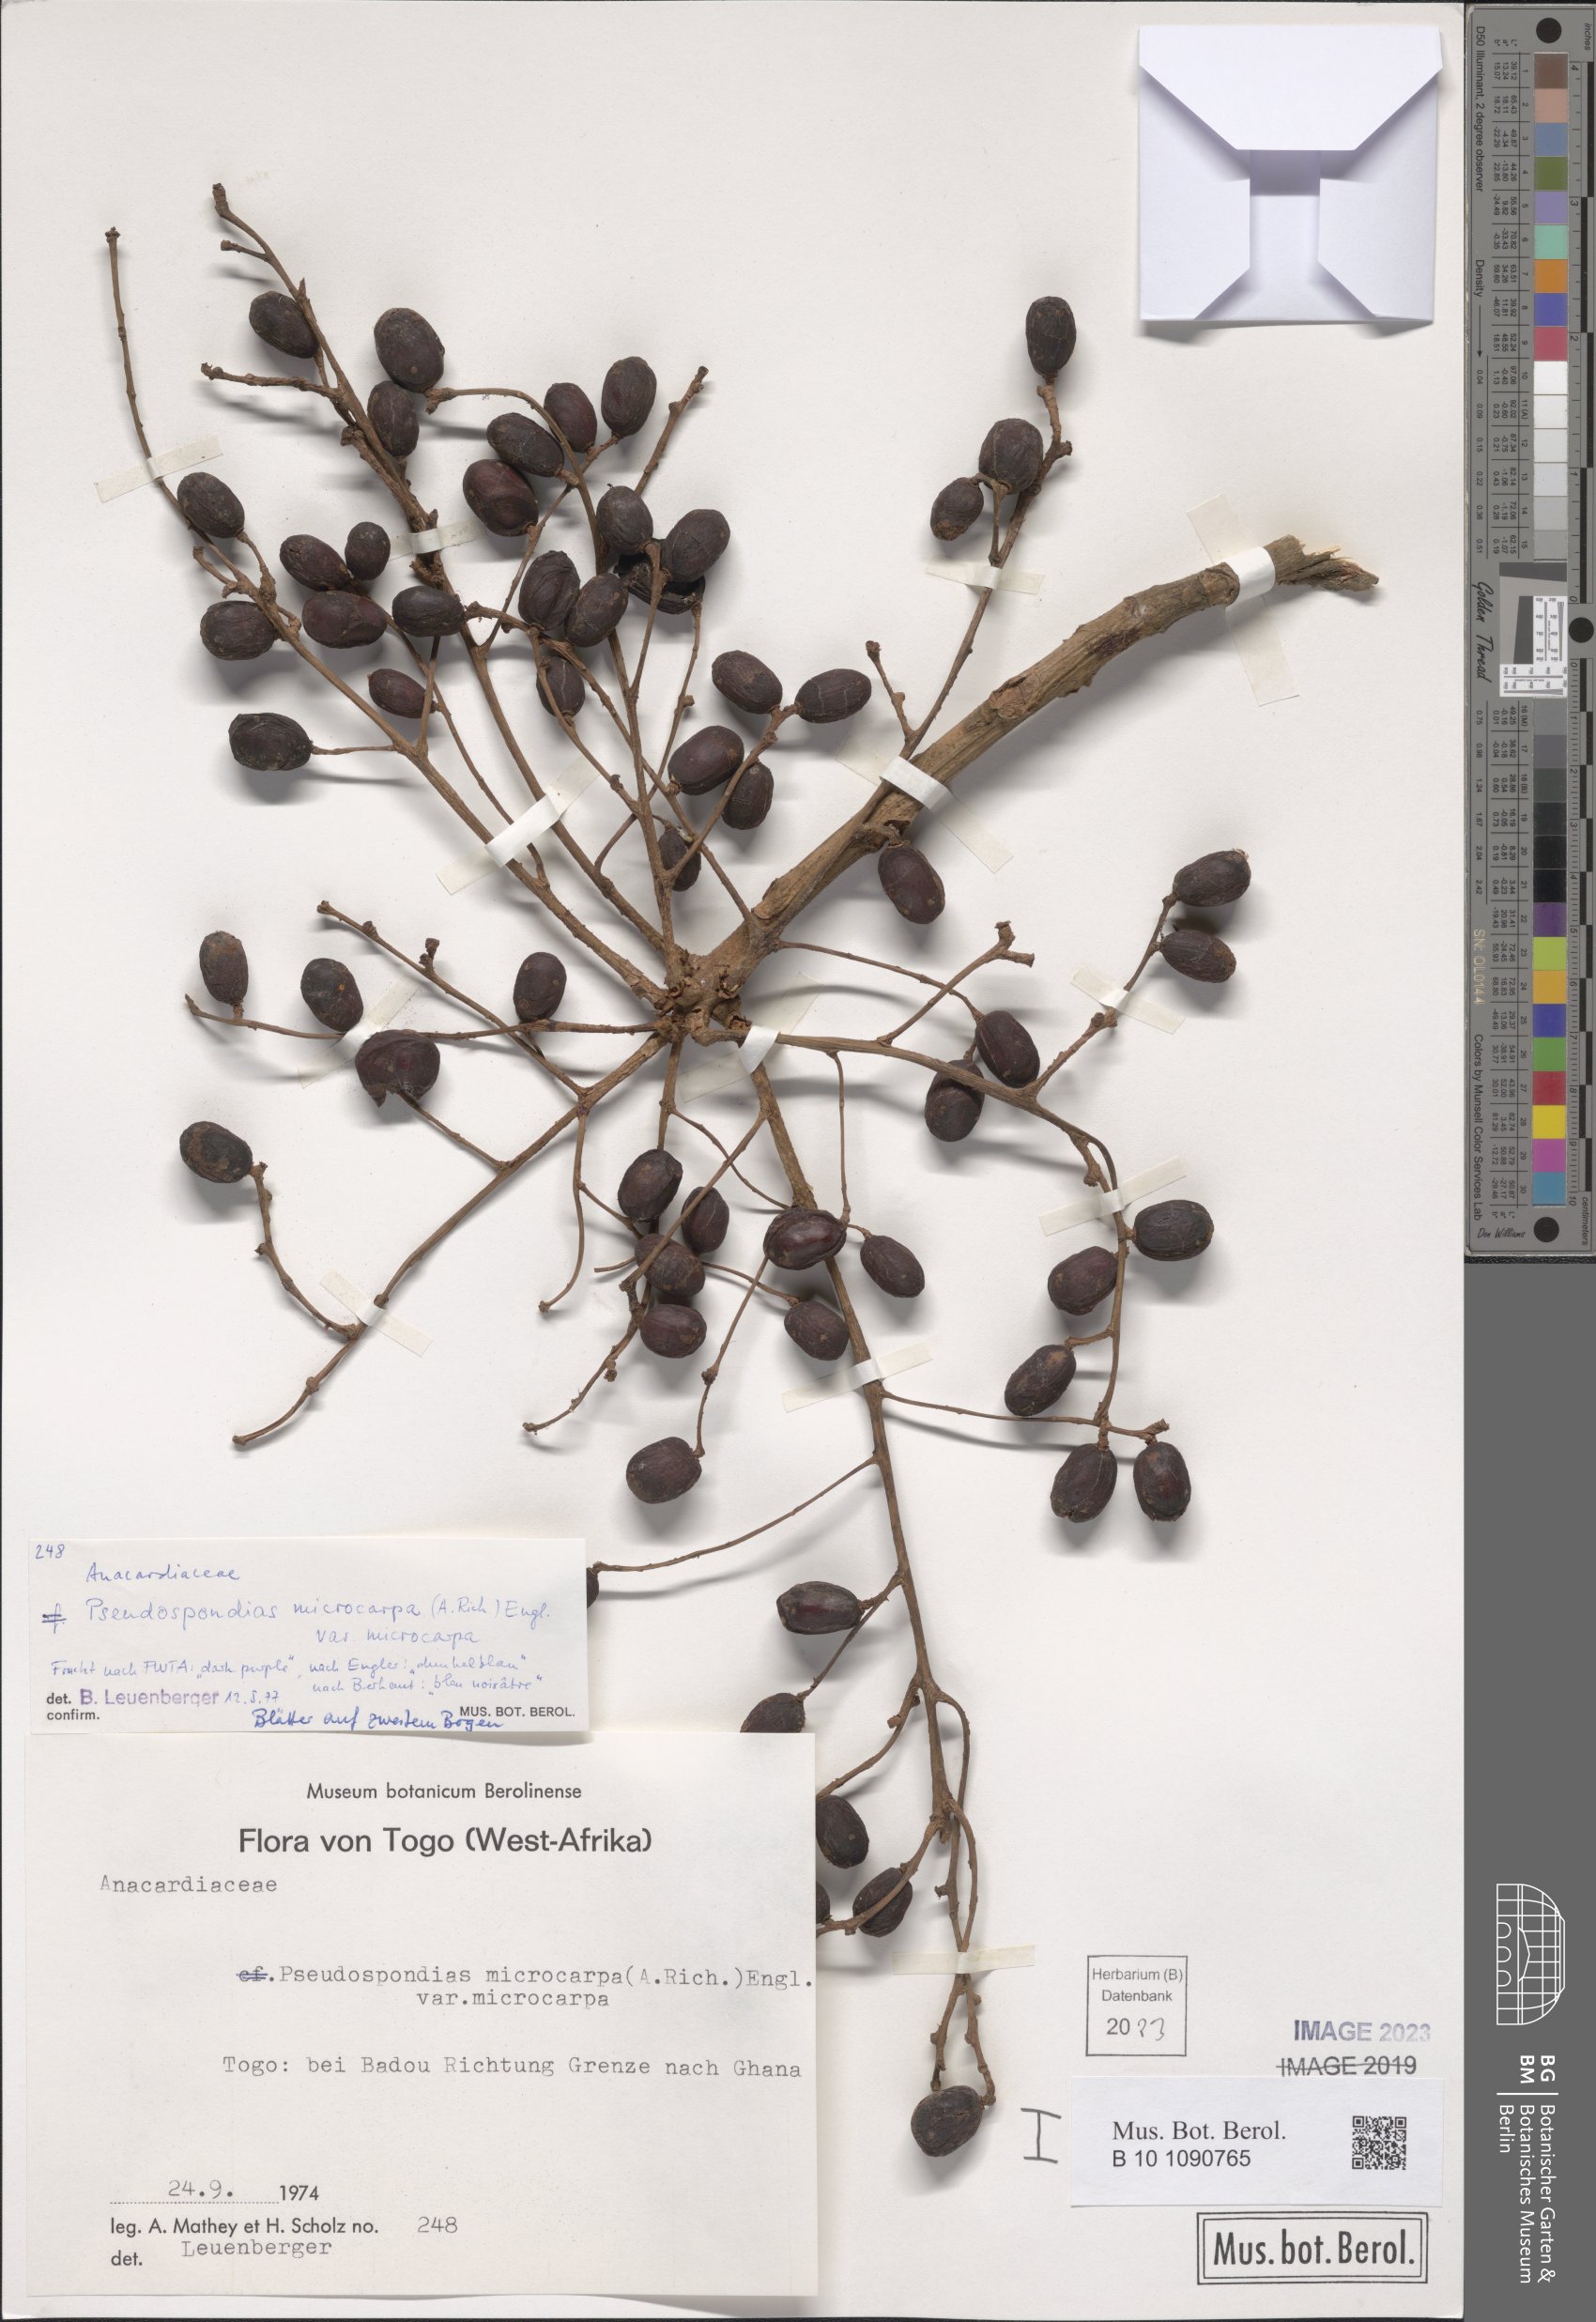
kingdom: Plantae
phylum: Tracheophyta
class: Magnoliopsida
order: Sapindales
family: Anacardiaceae
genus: Pseudospondias
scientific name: Pseudospondias microcarpa
